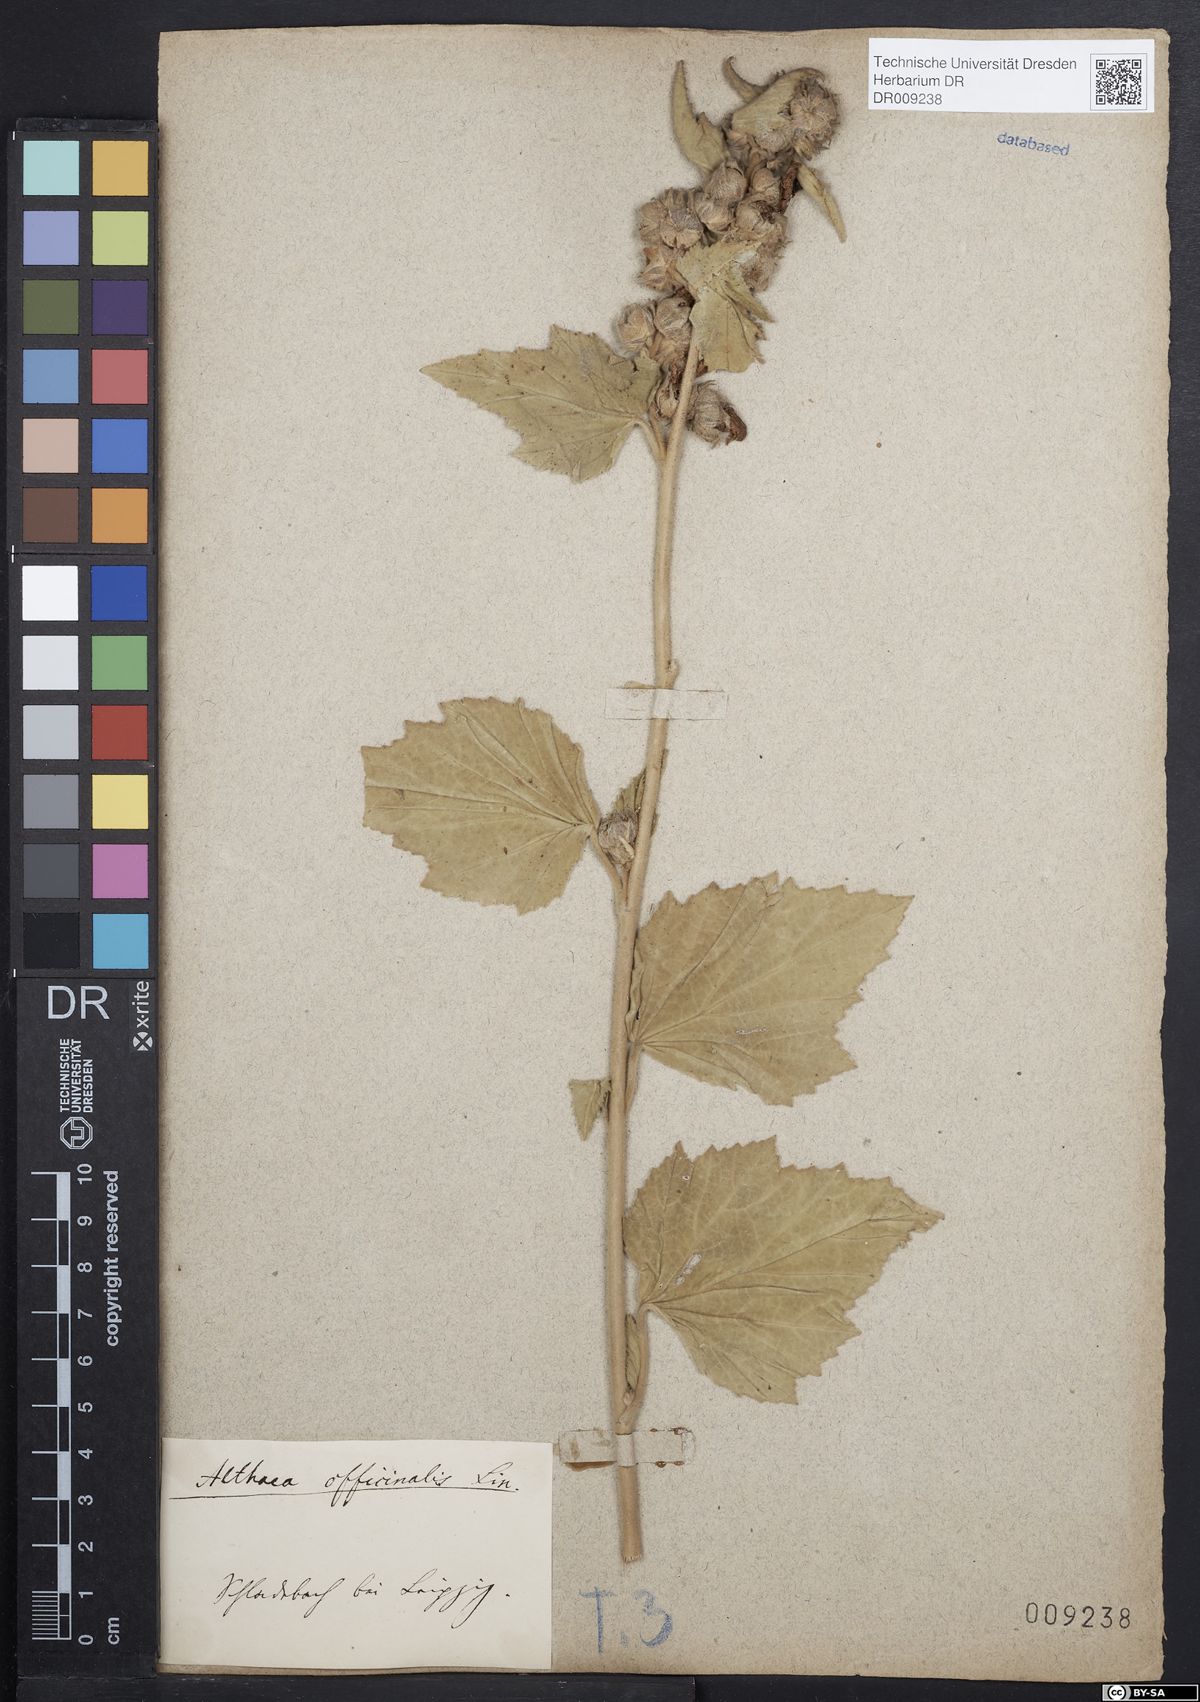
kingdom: Plantae
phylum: Tracheophyta
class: Magnoliopsida
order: Malvales
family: Malvaceae
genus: Althaea
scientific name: Althaea officinalis
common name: Marsh-mallow
